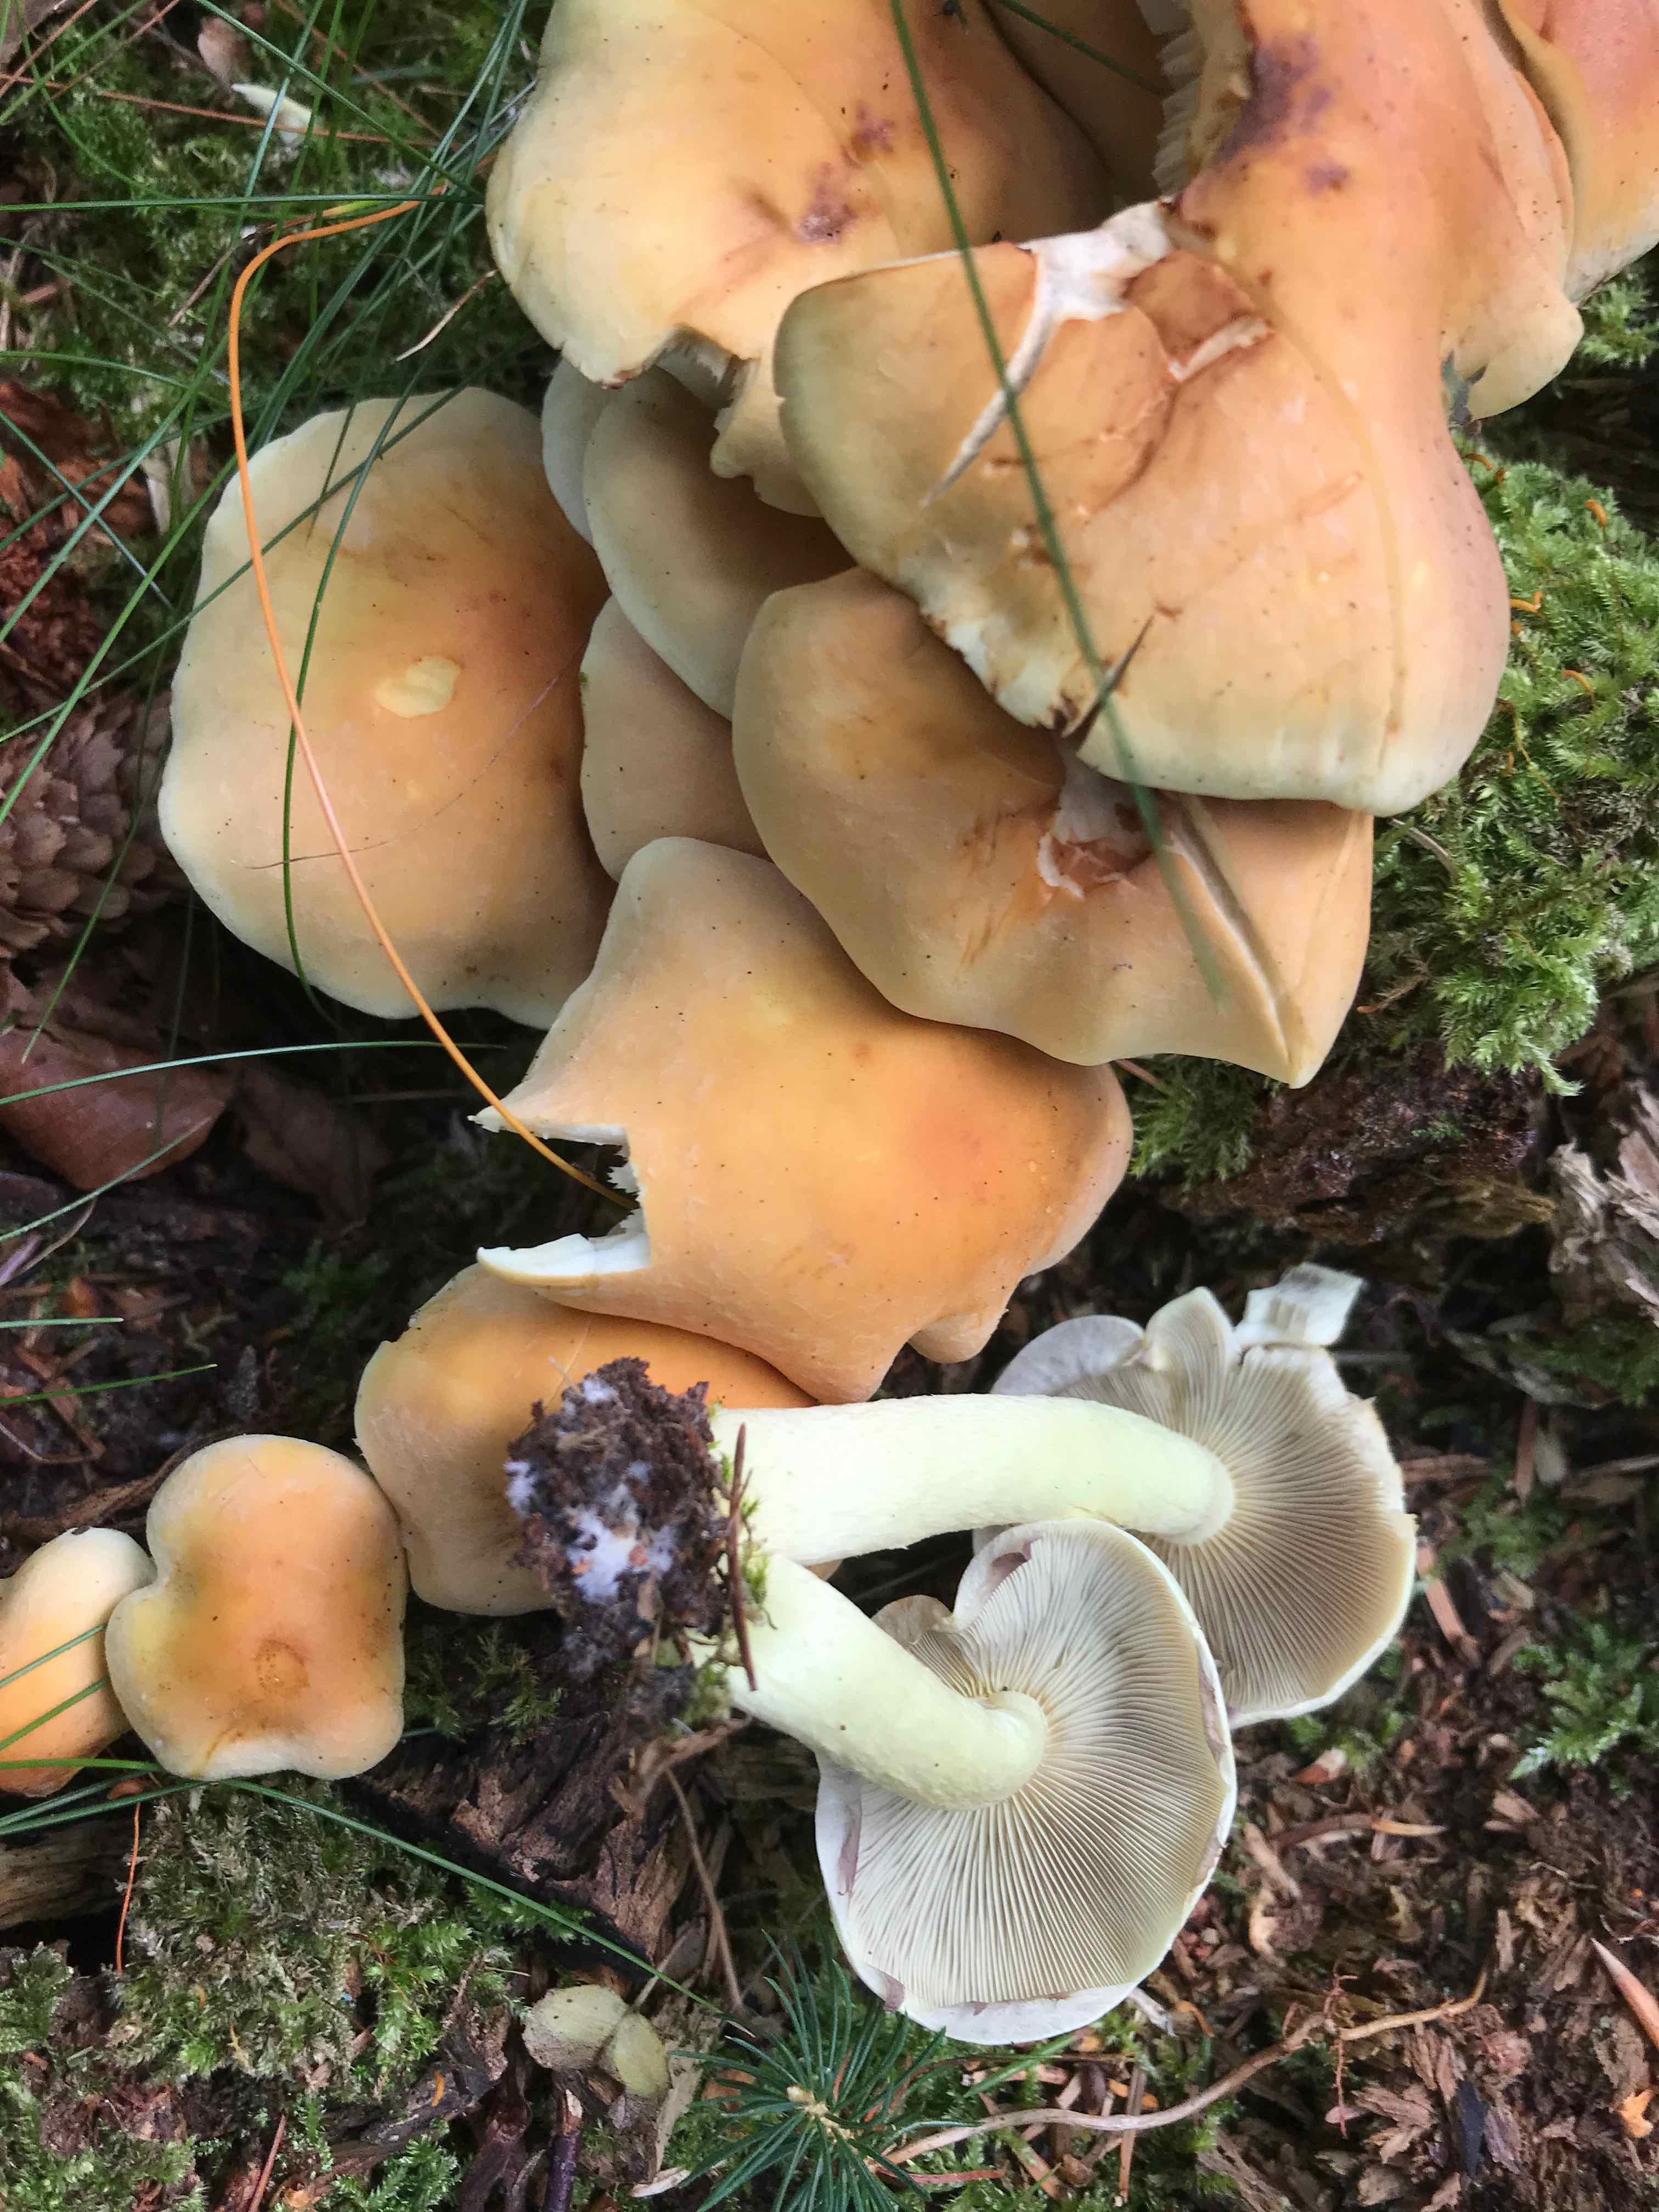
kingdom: Fungi
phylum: Basidiomycota
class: Agaricomycetes
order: Agaricales
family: Strophariaceae
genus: Hypholoma
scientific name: Hypholoma fasciculare
